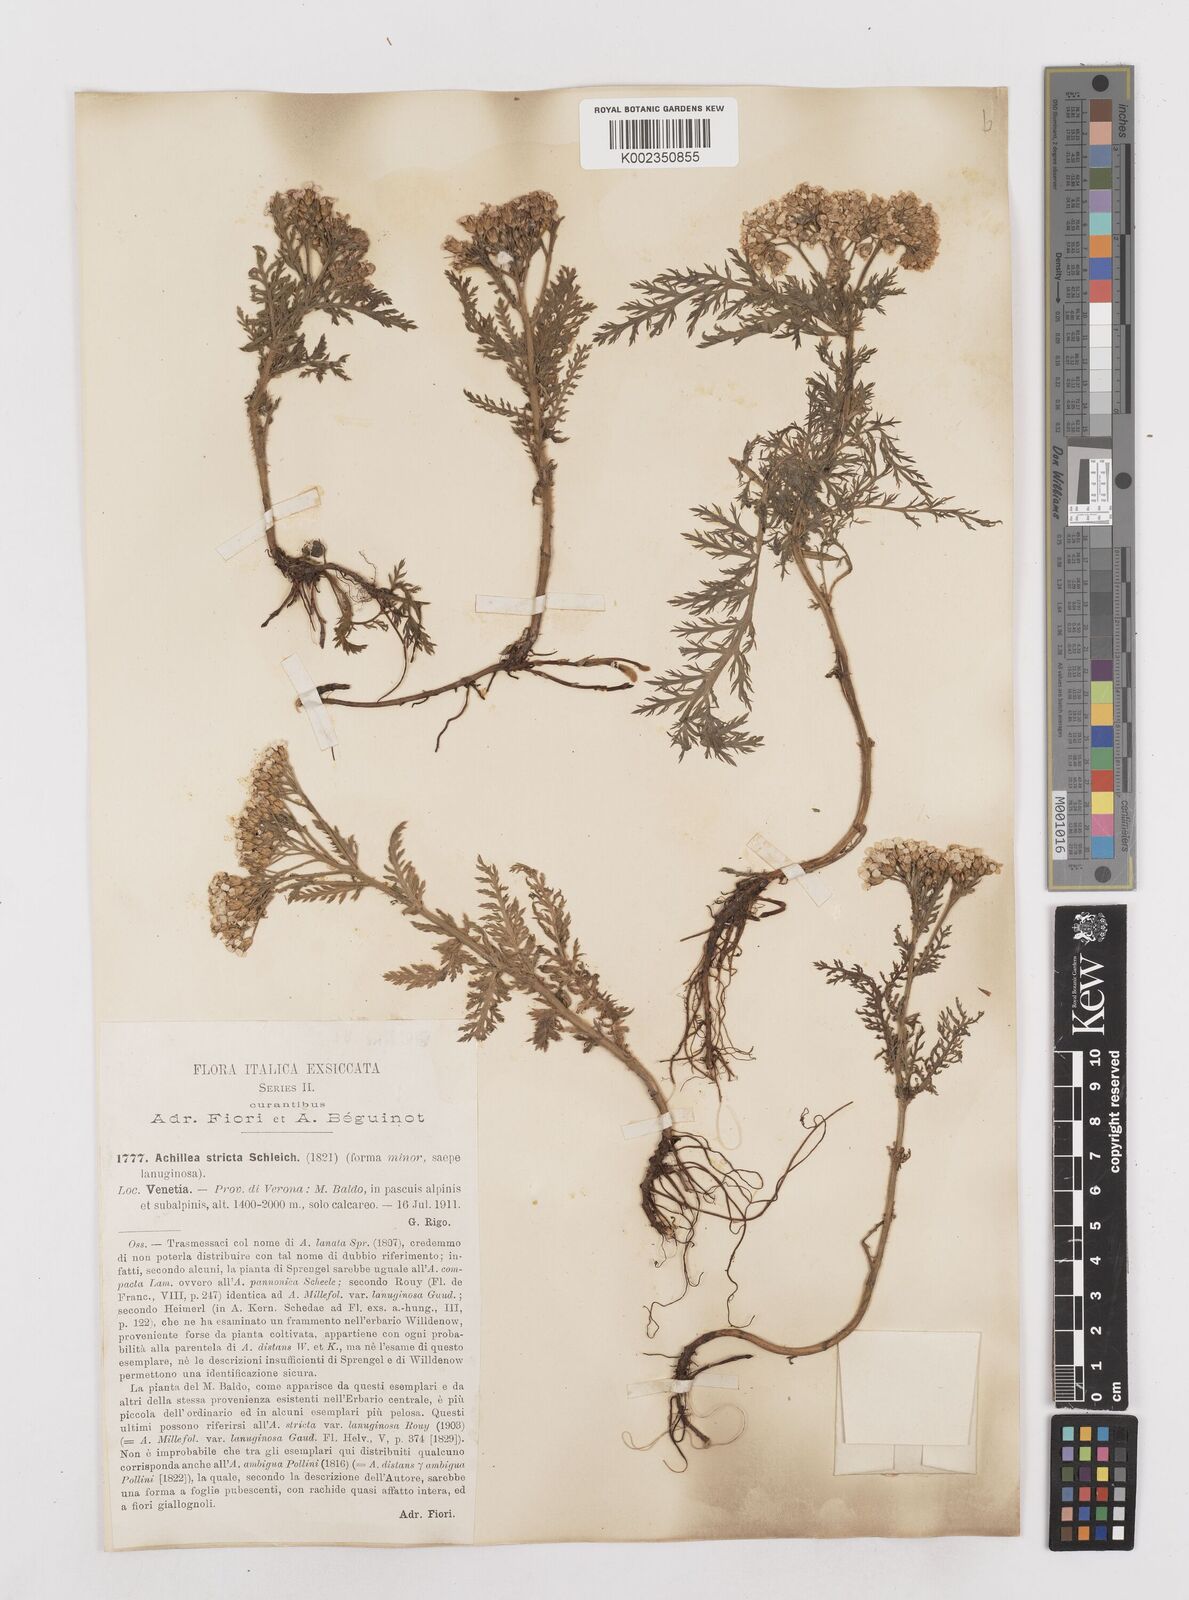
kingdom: Plantae
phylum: Tracheophyta
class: Magnoliopsida
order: Asterales
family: Asteraceae
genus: Achillea
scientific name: Achillea distans
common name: Tall yarrow
